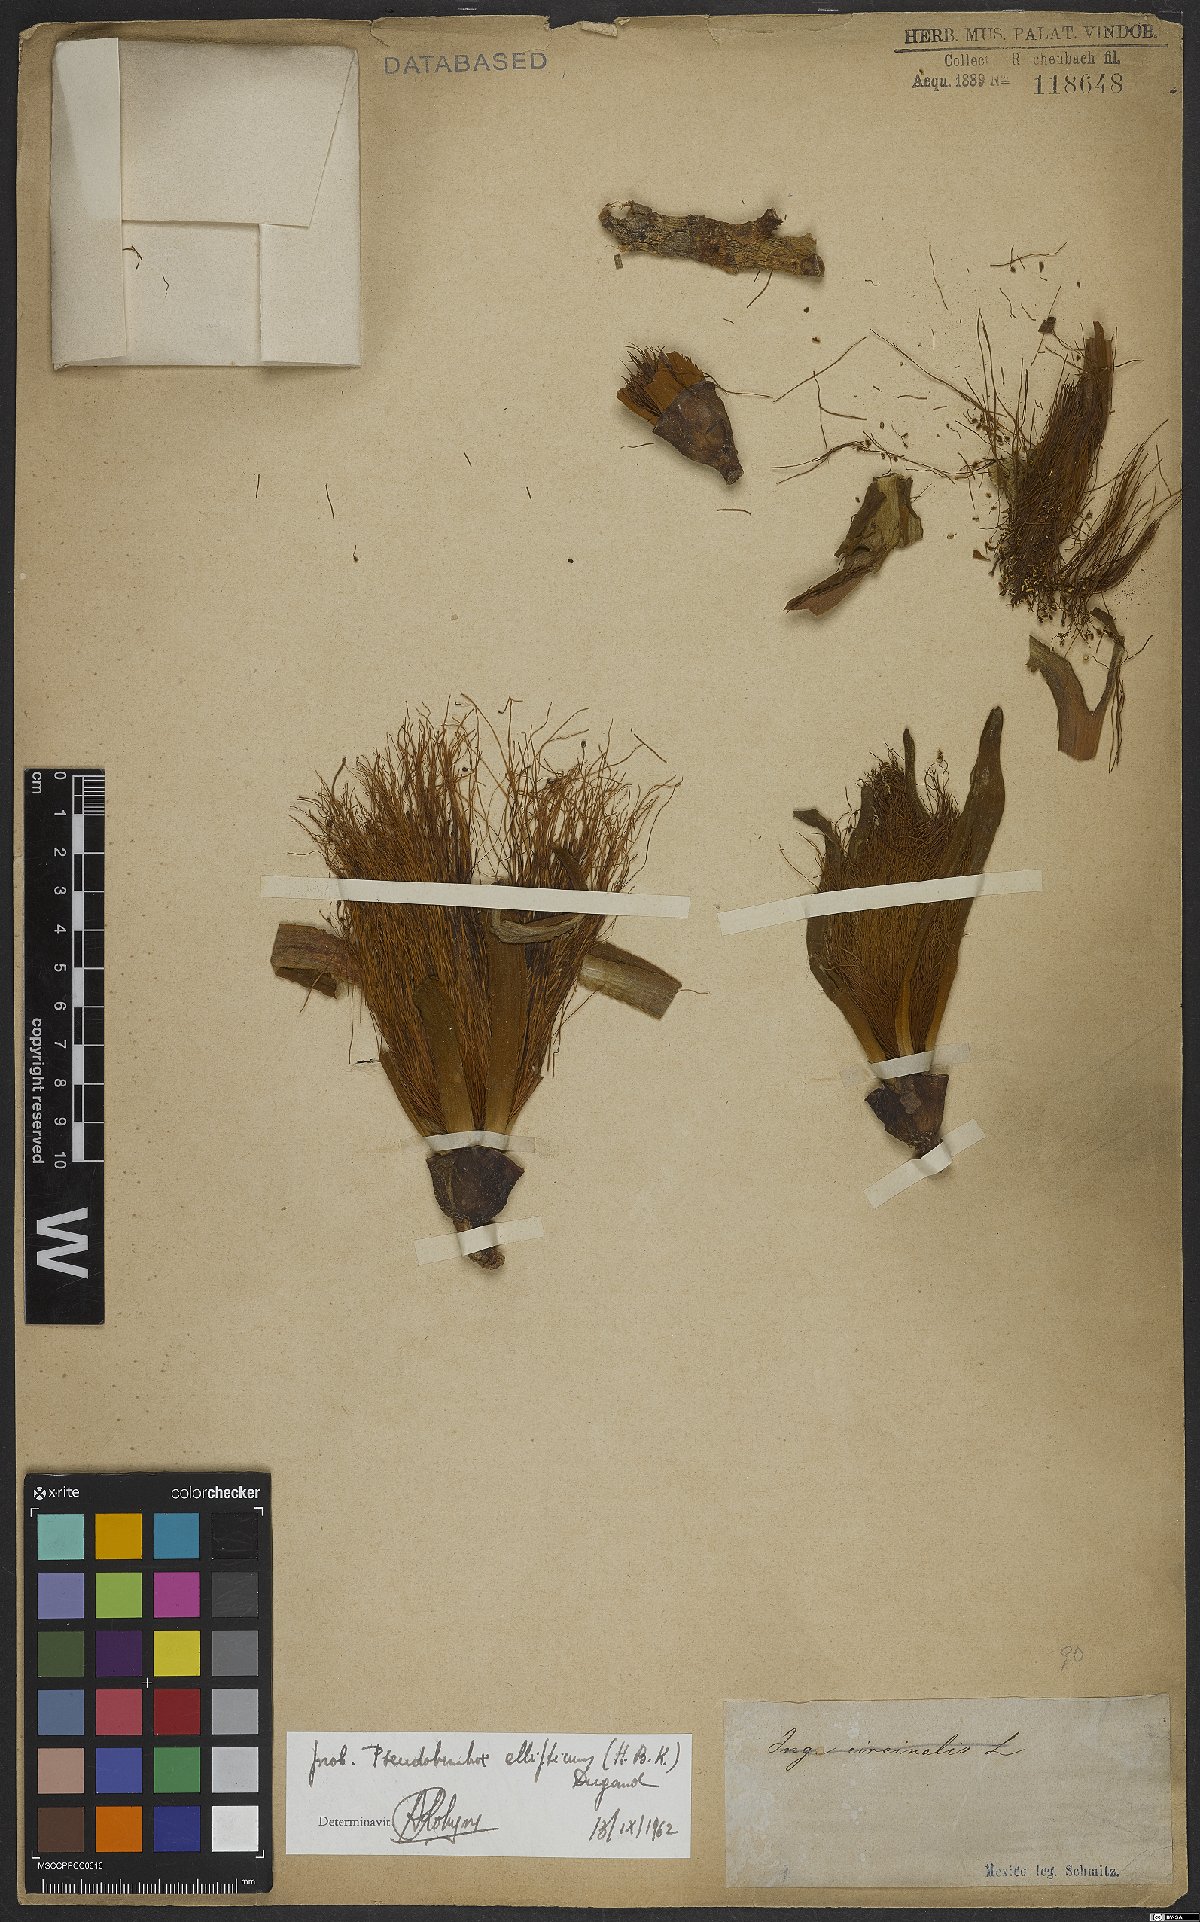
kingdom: Plantae
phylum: Tracheophyta
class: Magnoliopsida
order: Malvales
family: Malvaceae
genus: Pseudobombax
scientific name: Pseudobombax ellipticum
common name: Shaving-brush-tree
